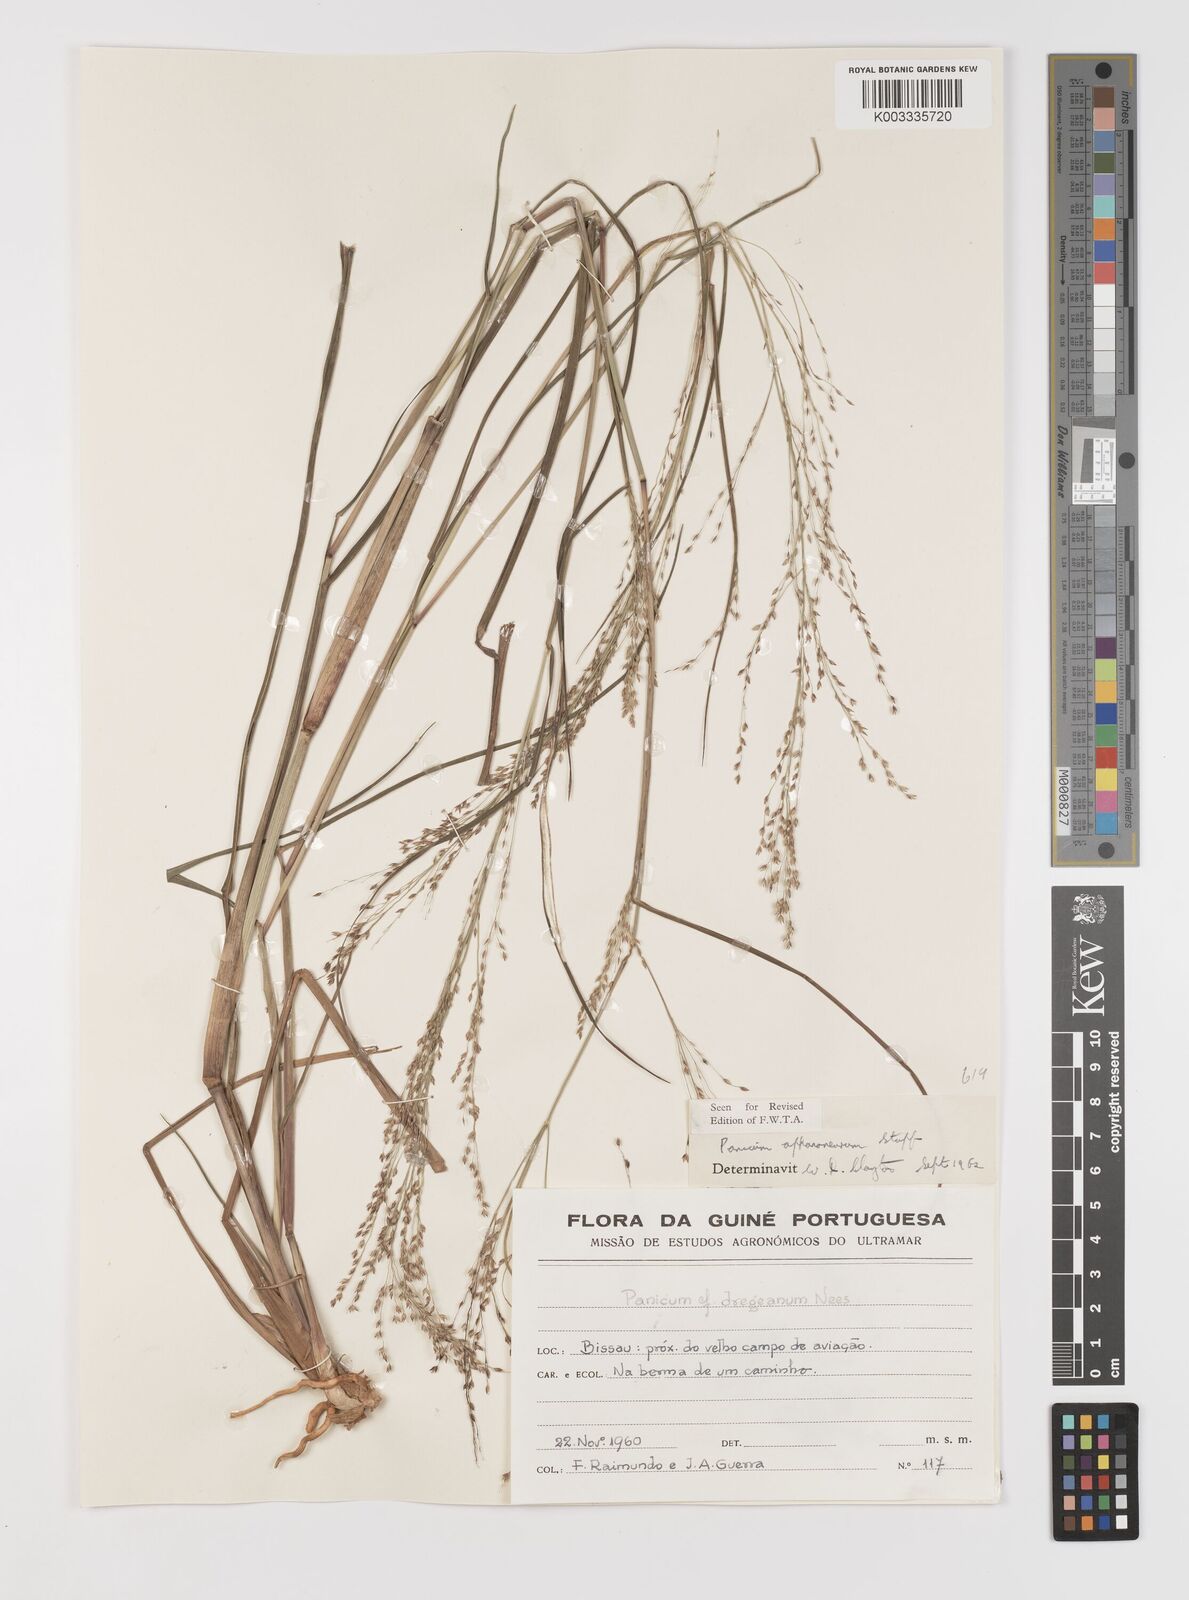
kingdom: Plantae
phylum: Tracheophyta
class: Liliopsida
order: Poales
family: Poaceae
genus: Panicum
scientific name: Panicum fluviicola
